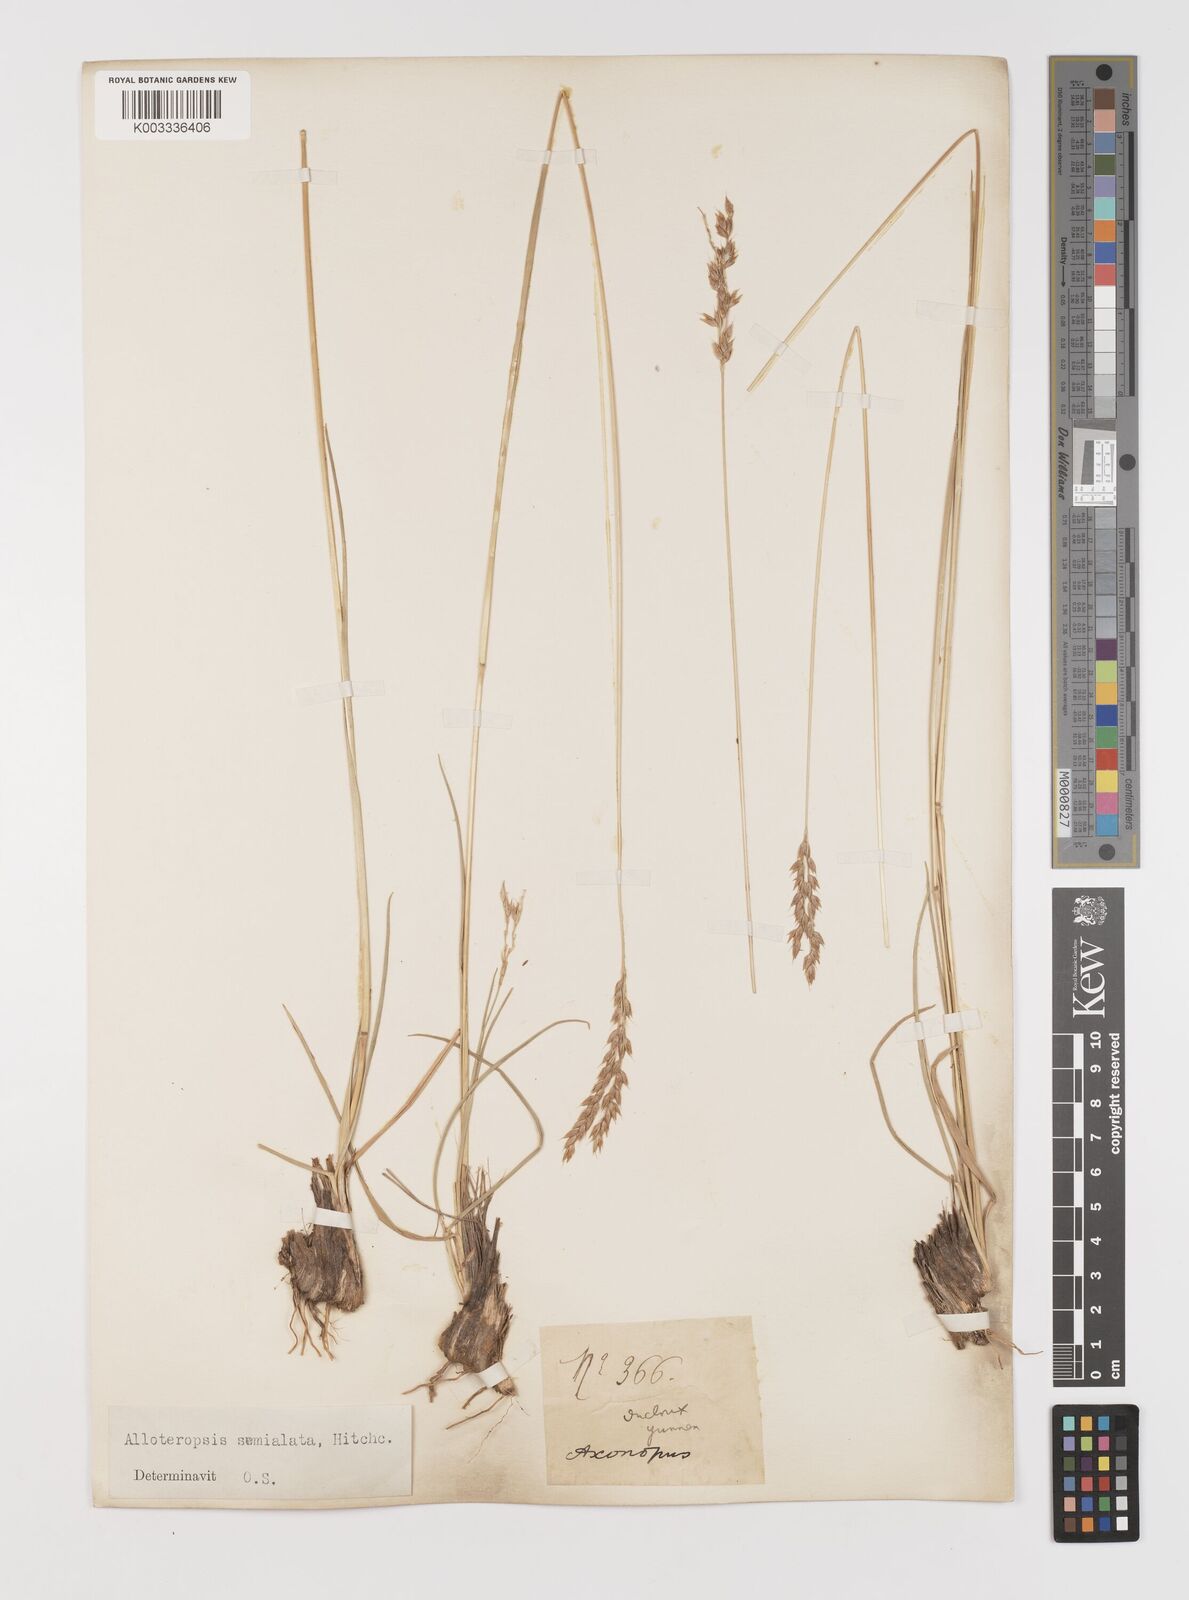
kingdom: Plantae
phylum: Tracheophyta
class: Liliopsida
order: Poales
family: Poaceae
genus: Alloteropsis
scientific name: Alloteropsis semialata
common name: Cockatoo grass
